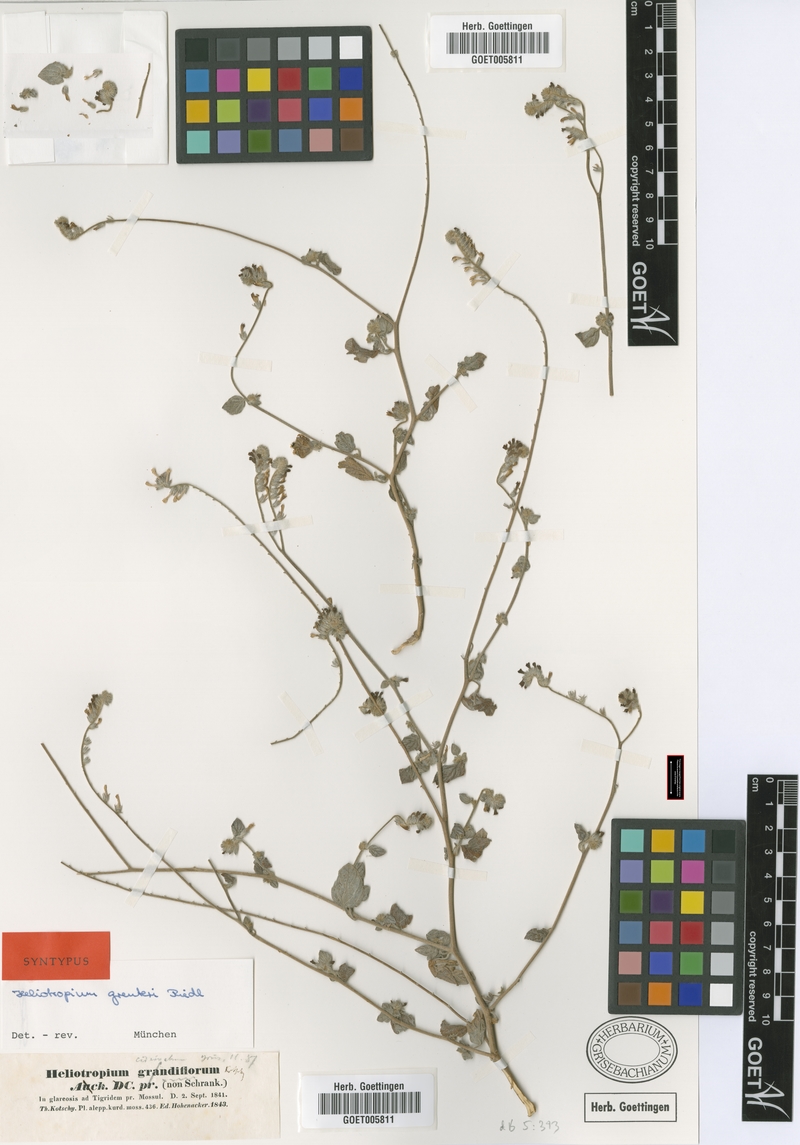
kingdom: Plantae
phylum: Tracheophyta
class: Magnoliopsida
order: Boraginales
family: Heliotropiaceae
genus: Heliotropium
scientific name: Heliotropium greuteri
